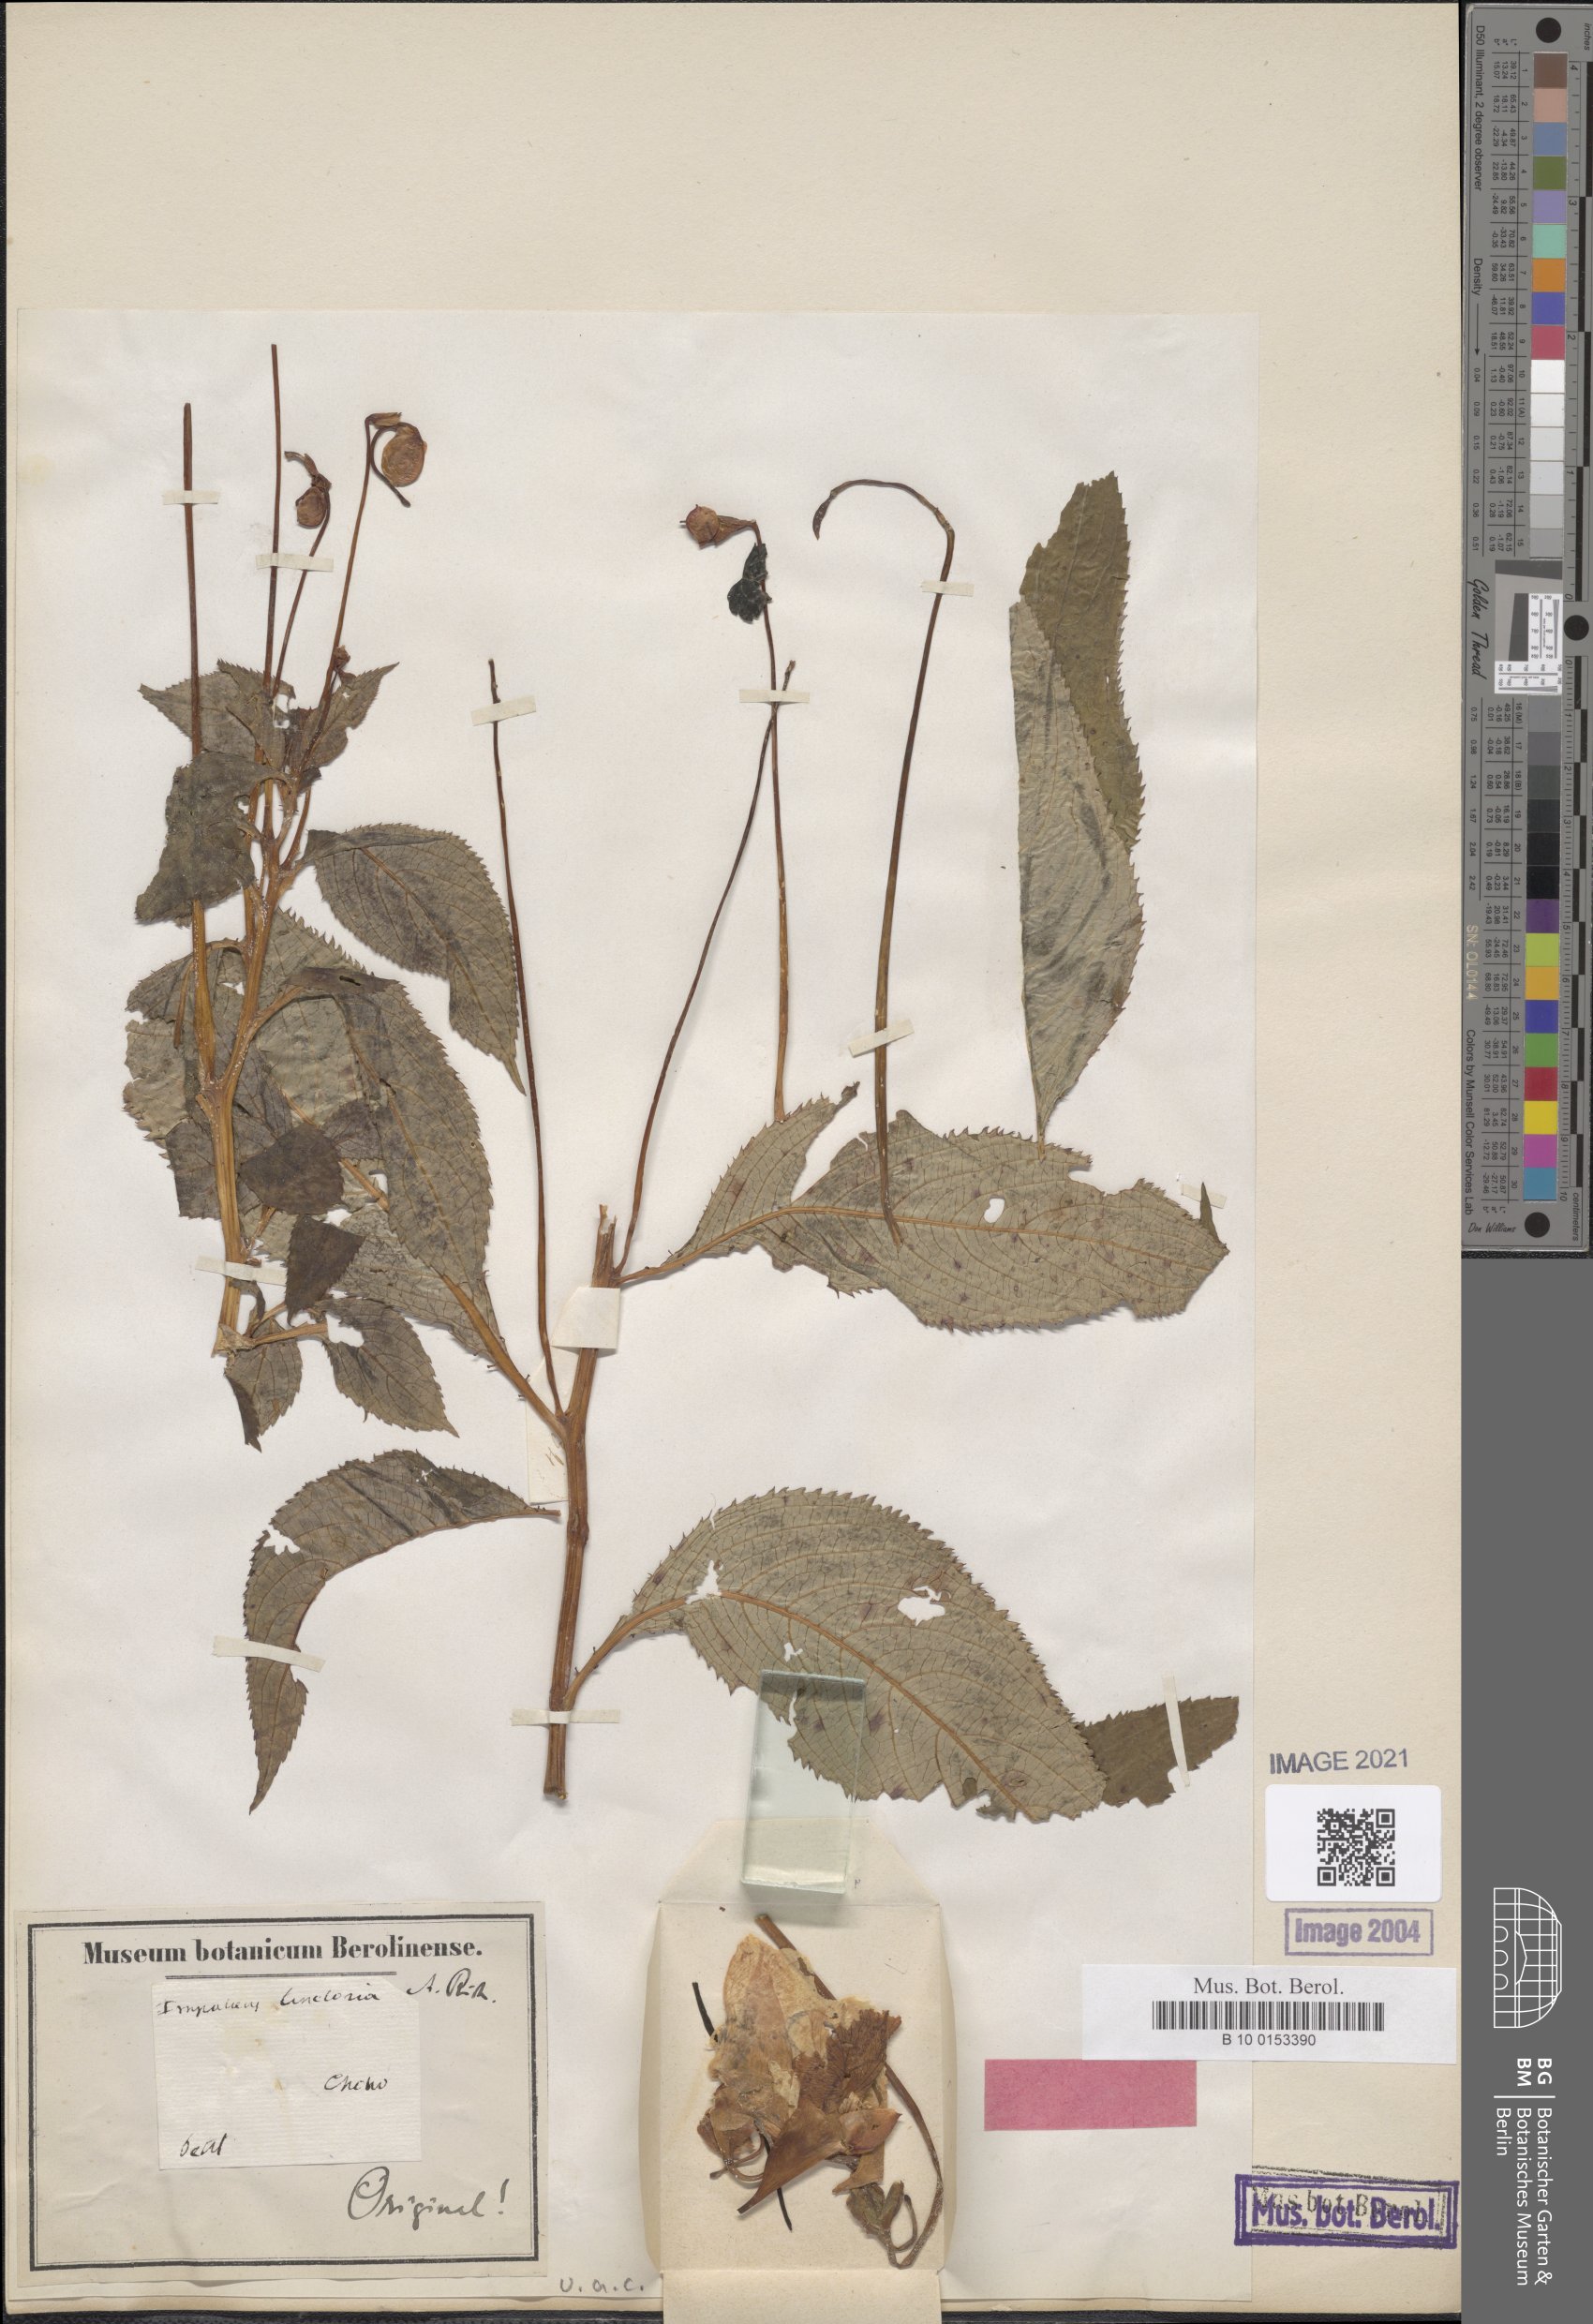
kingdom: Plantae
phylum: Tracheophyta
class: Magnoliopsida
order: Ericales
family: Balsaminaceae
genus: Impatiens
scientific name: Impatiens tinctoria
